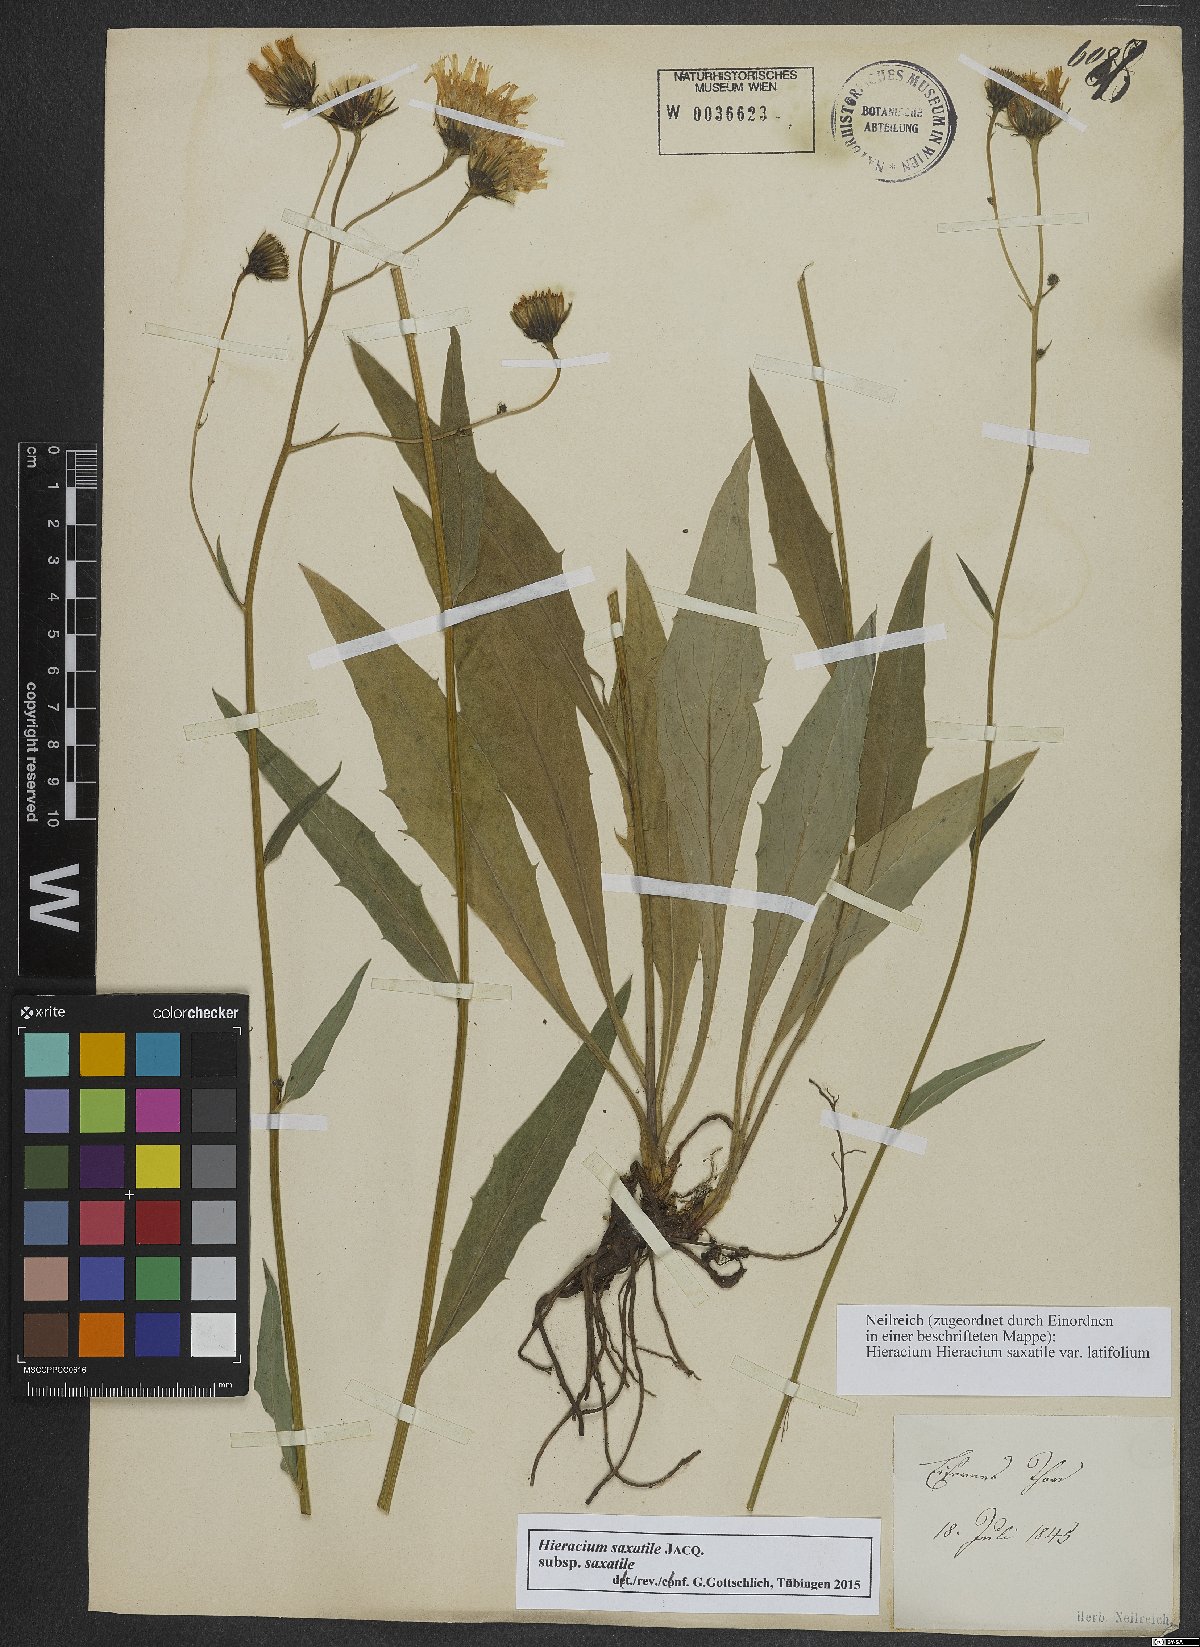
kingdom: Plantae
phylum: Tracheophyta
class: Magnoliopsida
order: Asterales
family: Asteraceae
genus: Hieracium
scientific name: Hieracium saxatile
